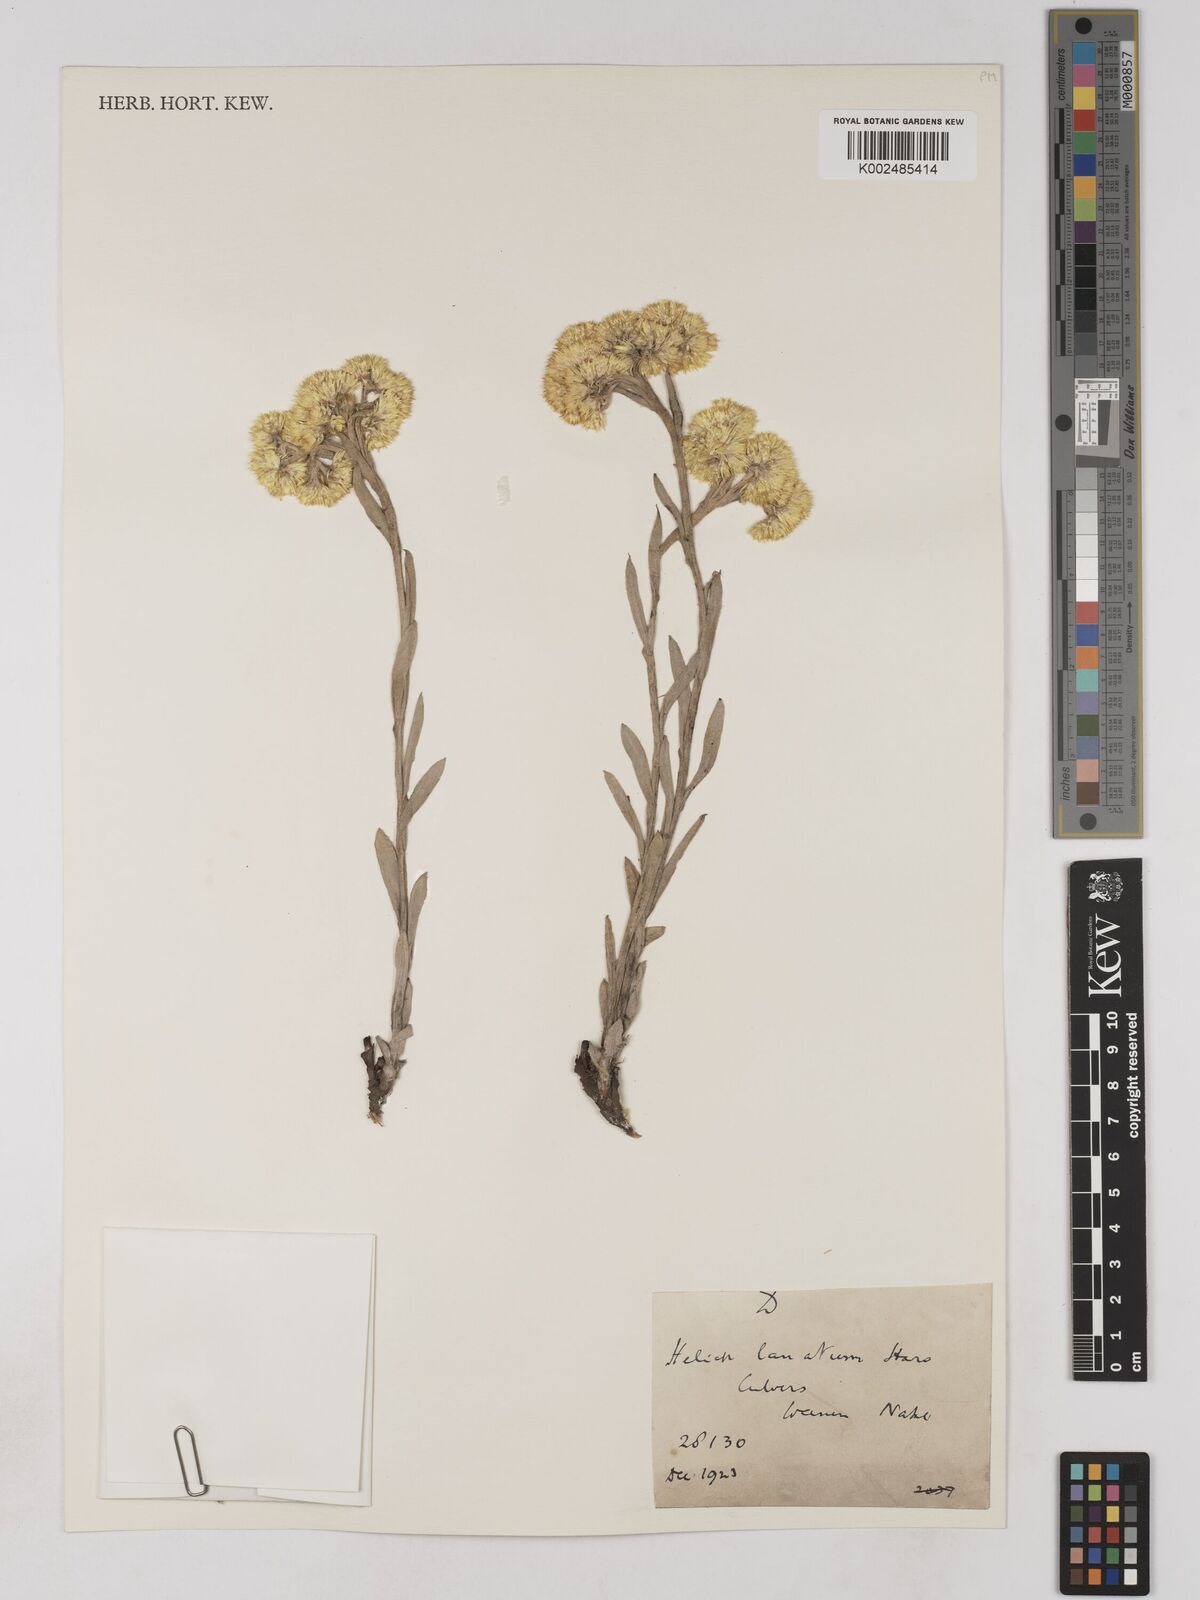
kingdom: Plantae
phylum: Tracheophyta
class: Magnoliopsida
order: Asterales
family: Asteraceae
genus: Helichrysum
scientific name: Helichrysum dasymallum
